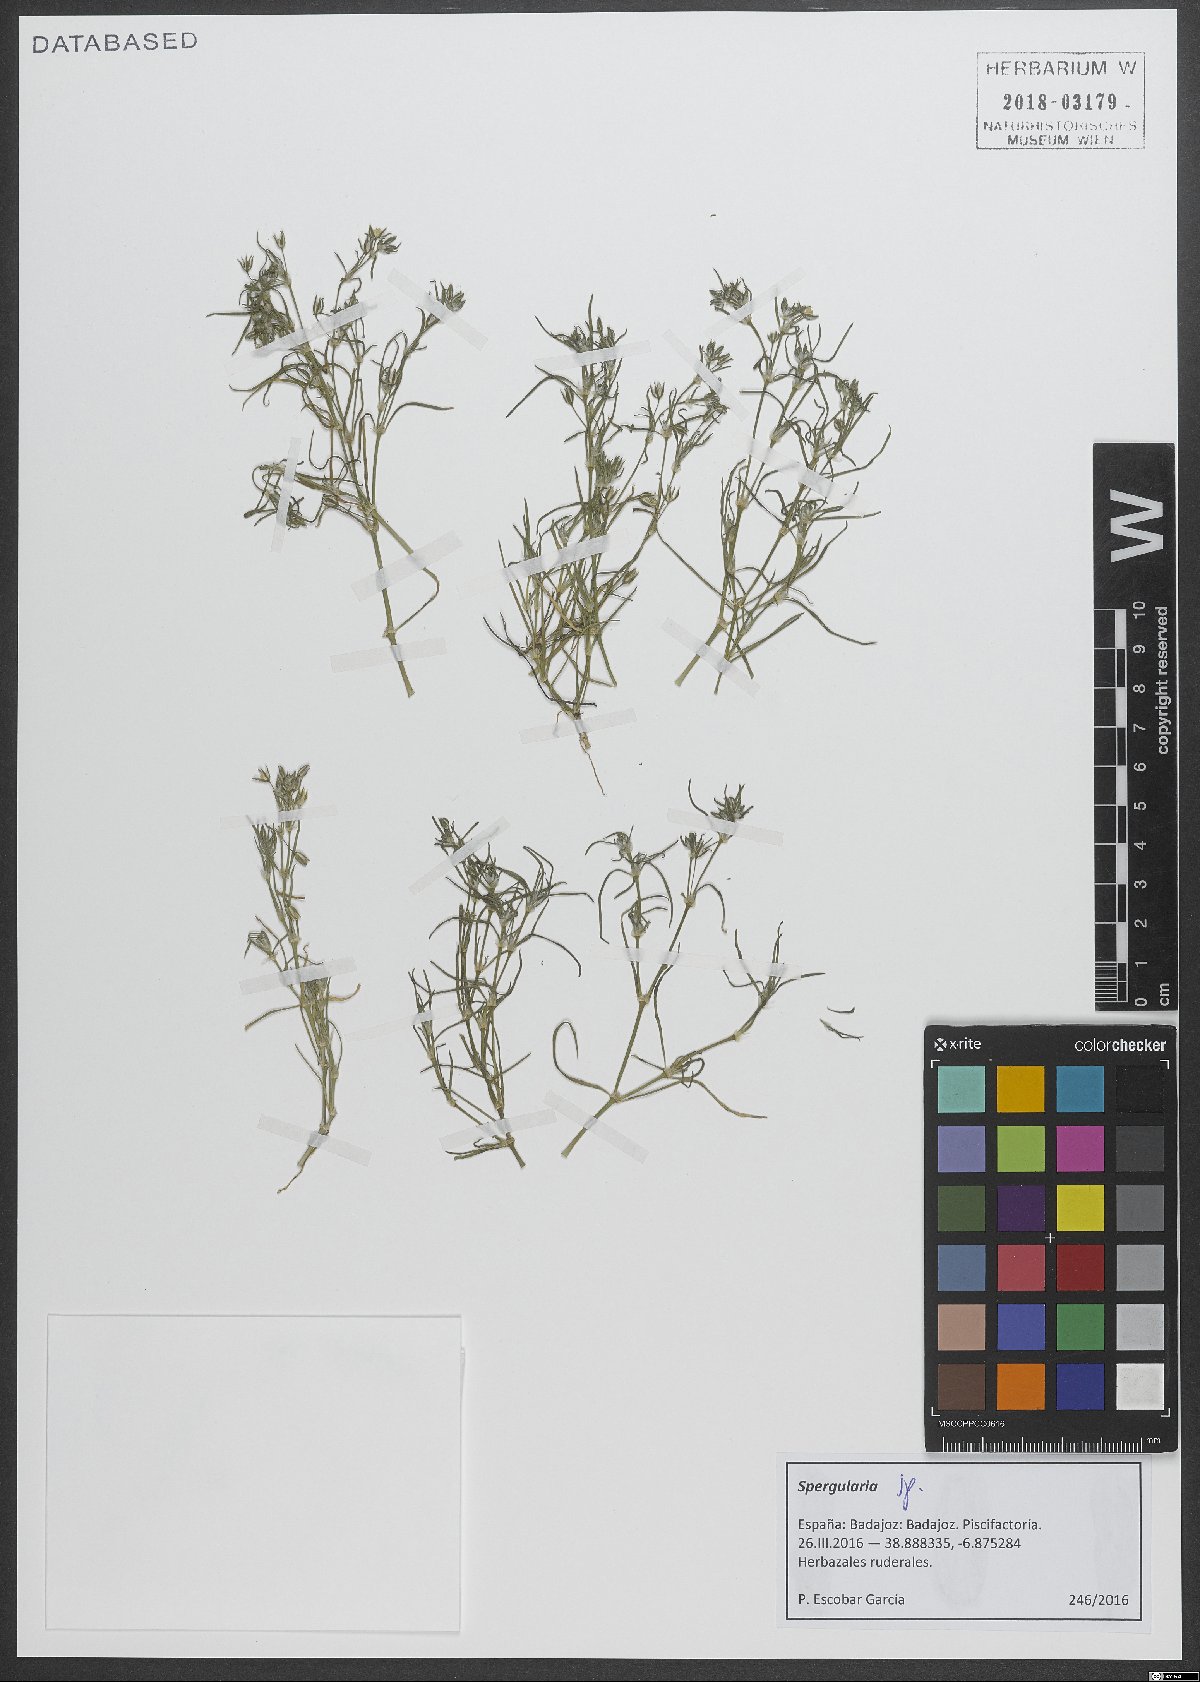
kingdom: Plantae
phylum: Tracheophyta
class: Magnoliopsida
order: Caryophyllales
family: Caryophyllaceae
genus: Spergularia
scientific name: Spergularia
